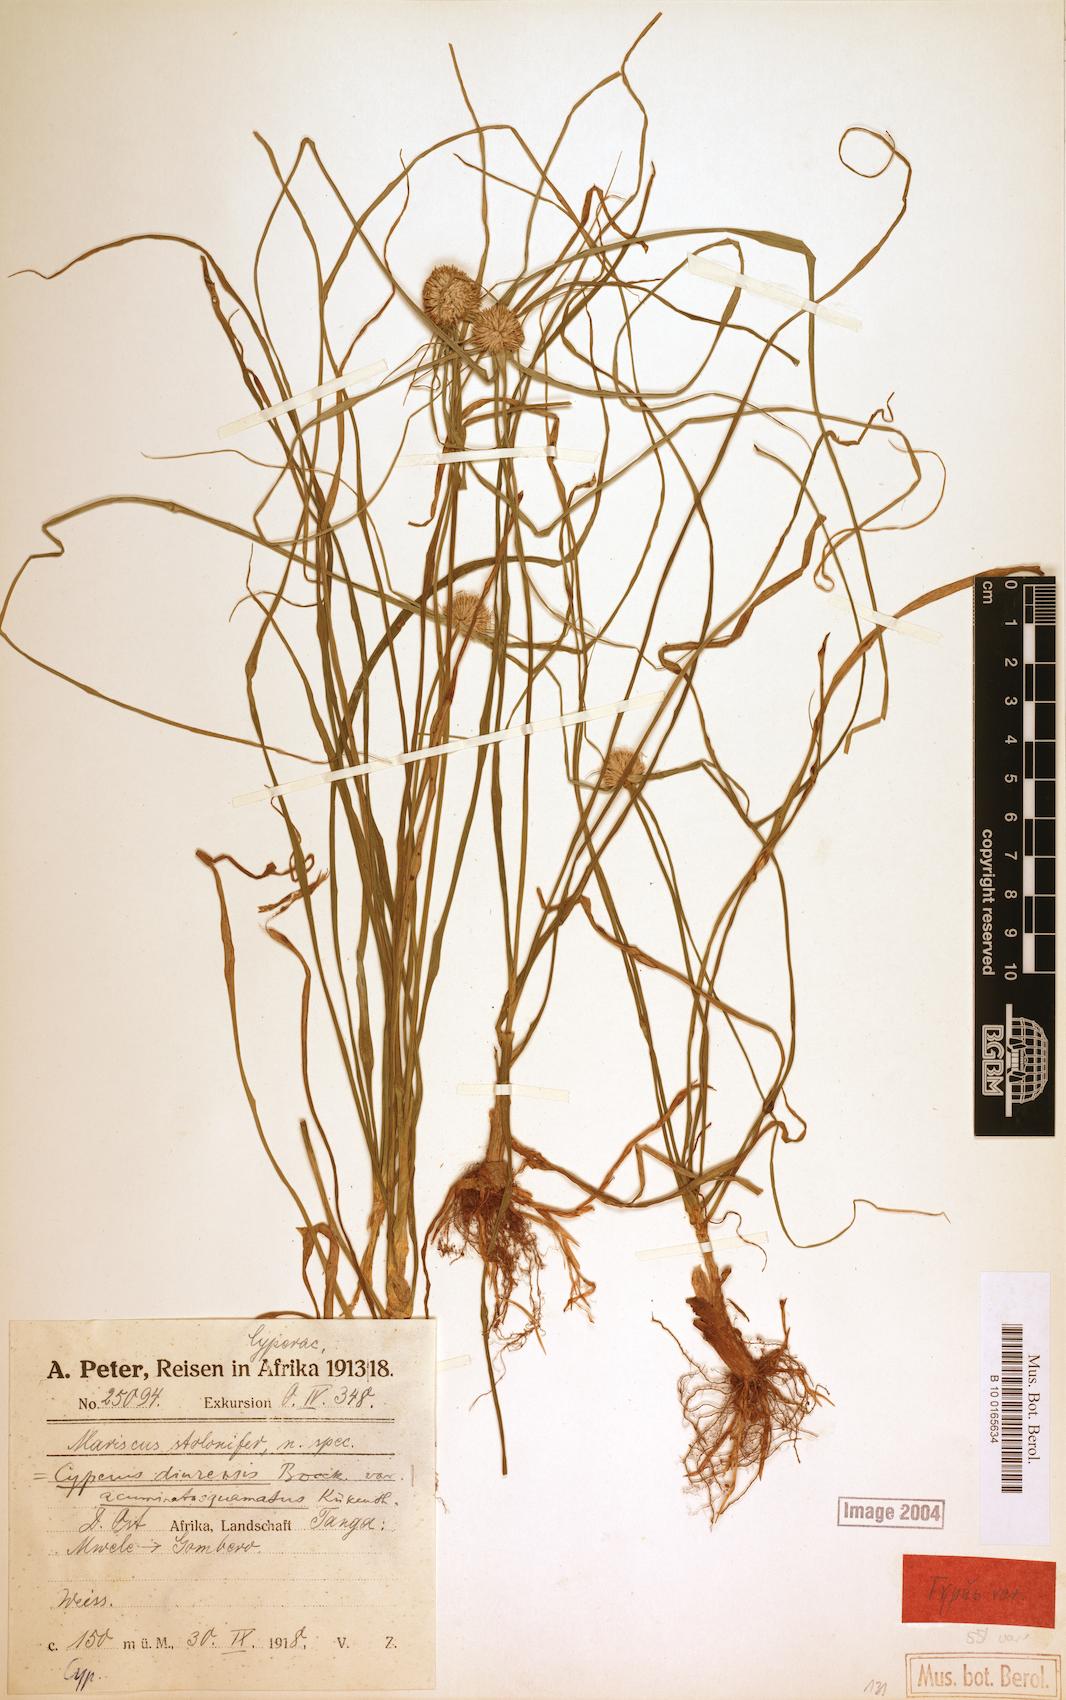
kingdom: Plantae
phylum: Tracheophyta
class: Liliopsida
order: Poales
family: Cyperaceae
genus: Cyperus
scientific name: Cyperus diurensis
